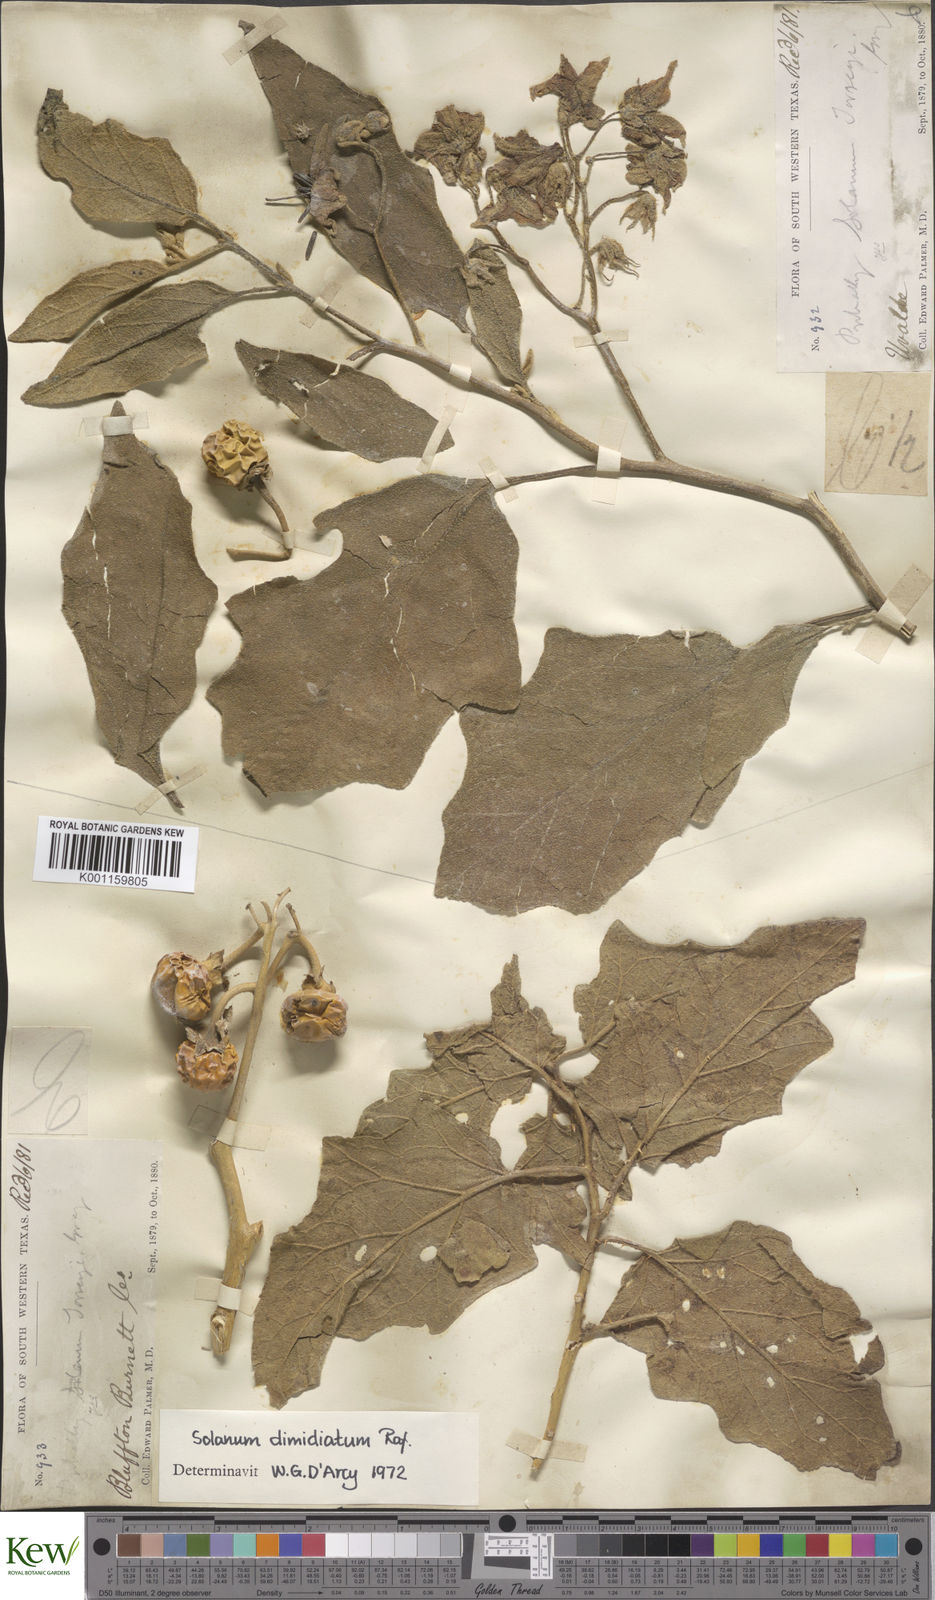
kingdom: Plantae
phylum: Tracheophyta
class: Magnoliopsida
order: Solanales
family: Solanaceae
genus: Solanum
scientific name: Solanum
